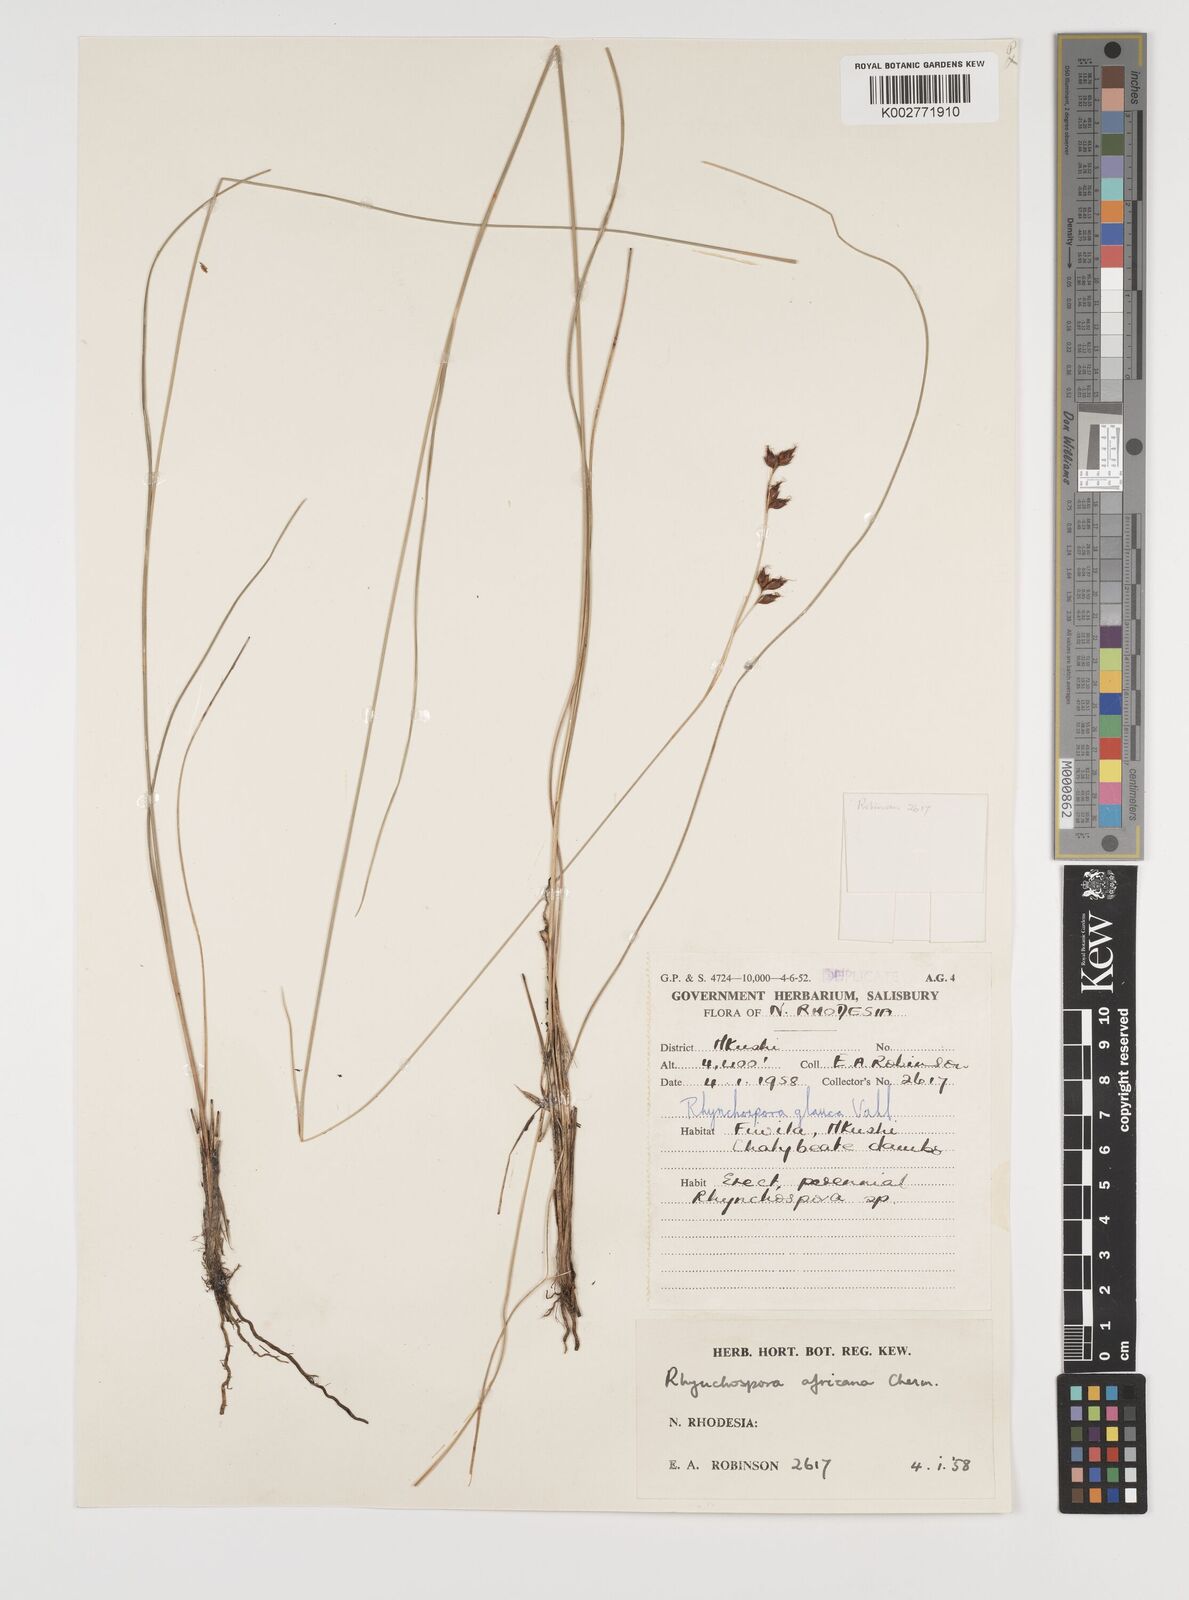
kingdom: Plantae
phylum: Tracheophyta
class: Liliopsida
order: Poales
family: Cyperaceae
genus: Rhynchospora
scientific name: Rhynchospora angolensis
